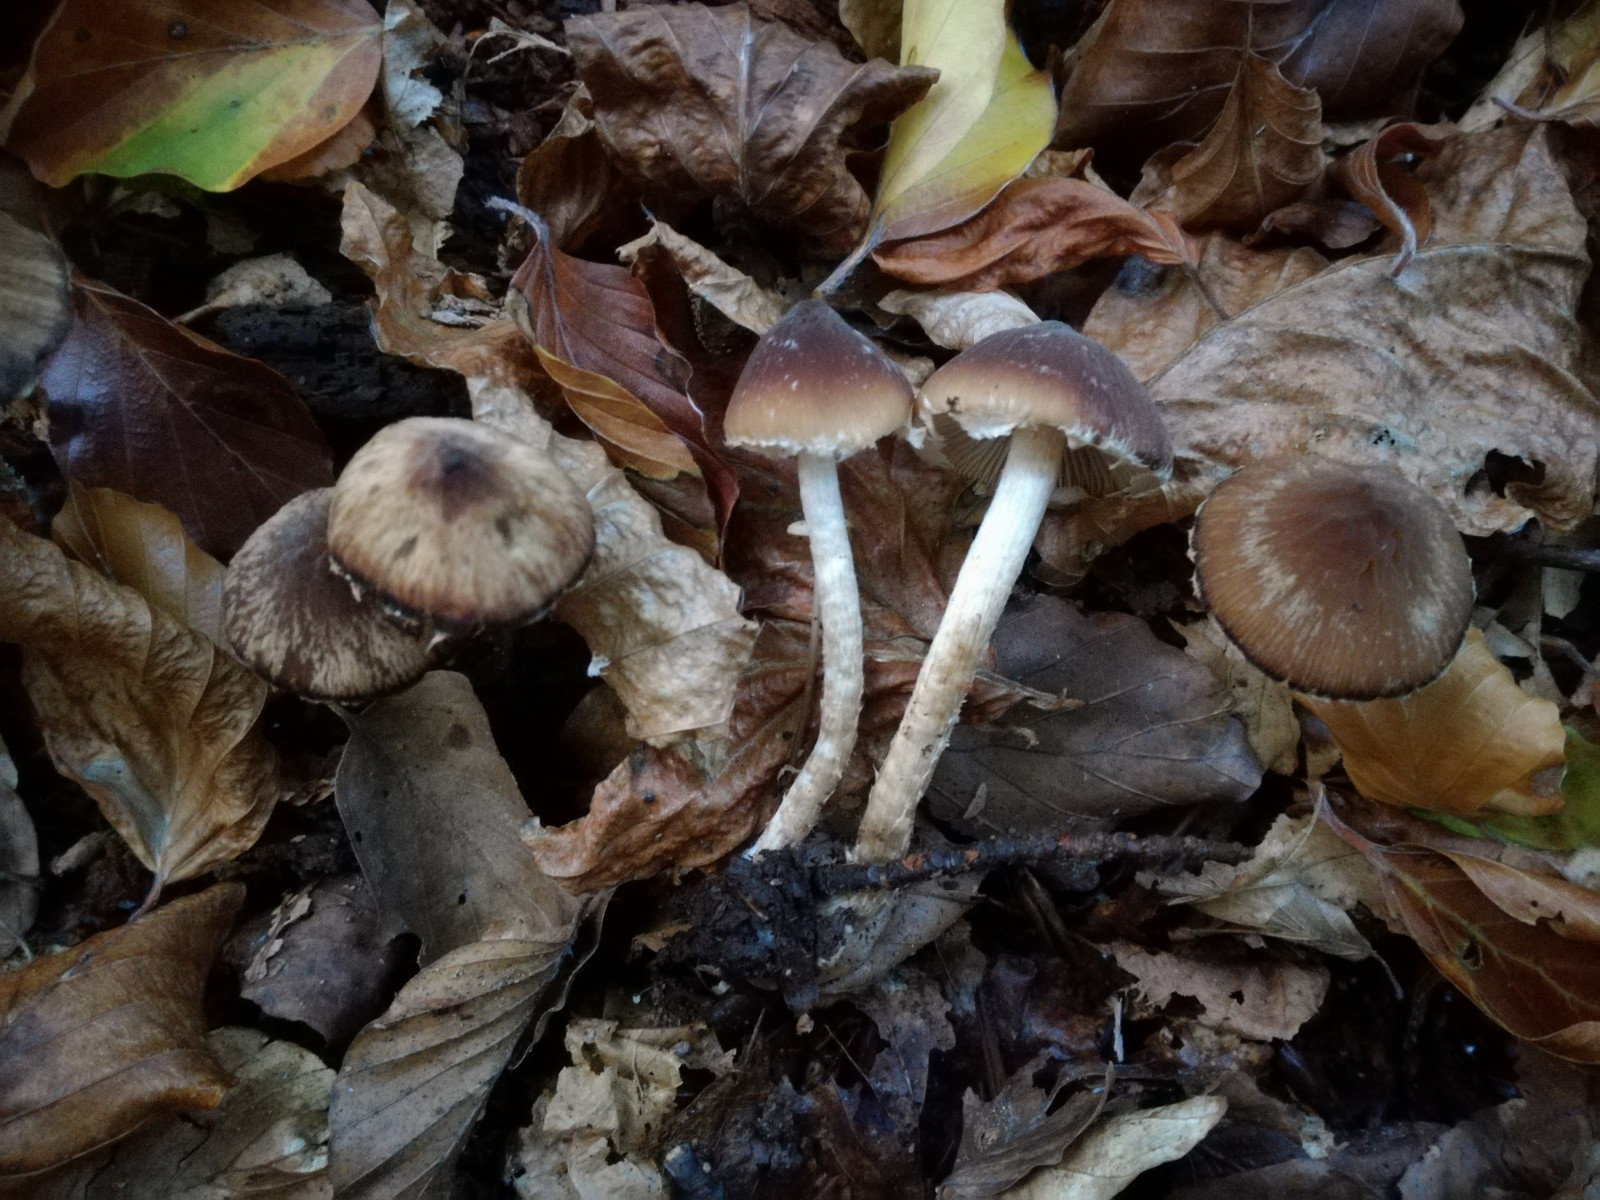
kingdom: Fungi
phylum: Basidiomycota
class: Agaricomycetes
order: Agaricales
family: Psathyrellaceae
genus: Psathyrella
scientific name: Psathyrella cortinarioides
